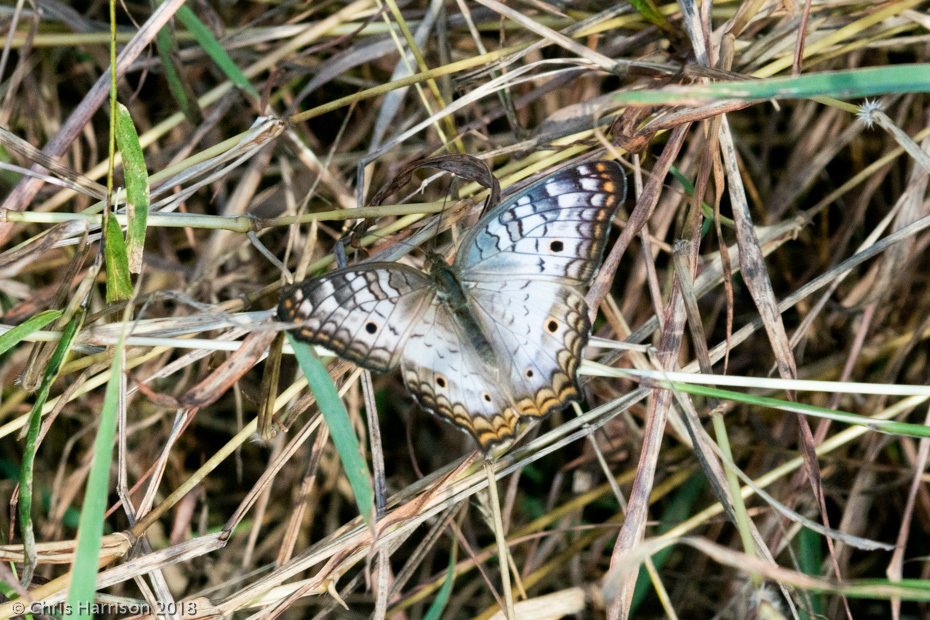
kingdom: Animalia
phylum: Arthropoda
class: Insecta
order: Lepidoptera
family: Nymphalidae
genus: Anartia
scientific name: Anartia jatrophae
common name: White Peacock
